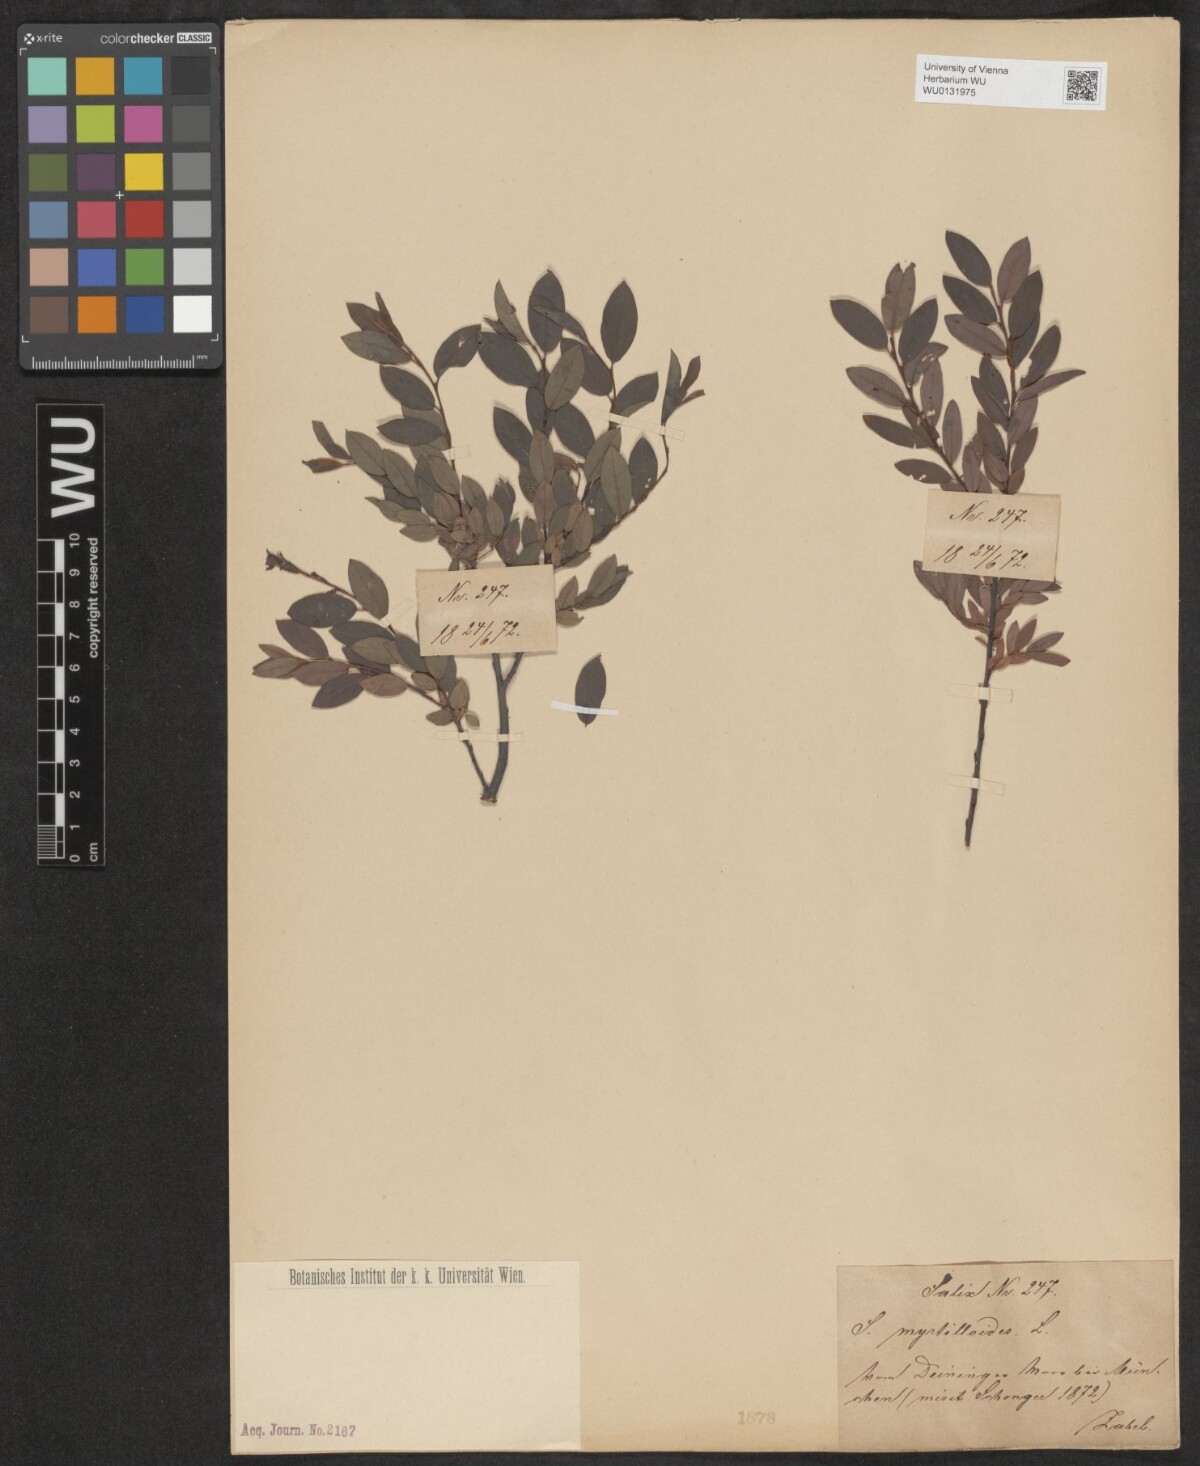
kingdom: Plantae
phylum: Tracheophyta
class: Magnoliopsida
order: Malpighiales
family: Salicaceae
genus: Salix
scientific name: Salix myrtilloides
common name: Myrtle-leaved willow
